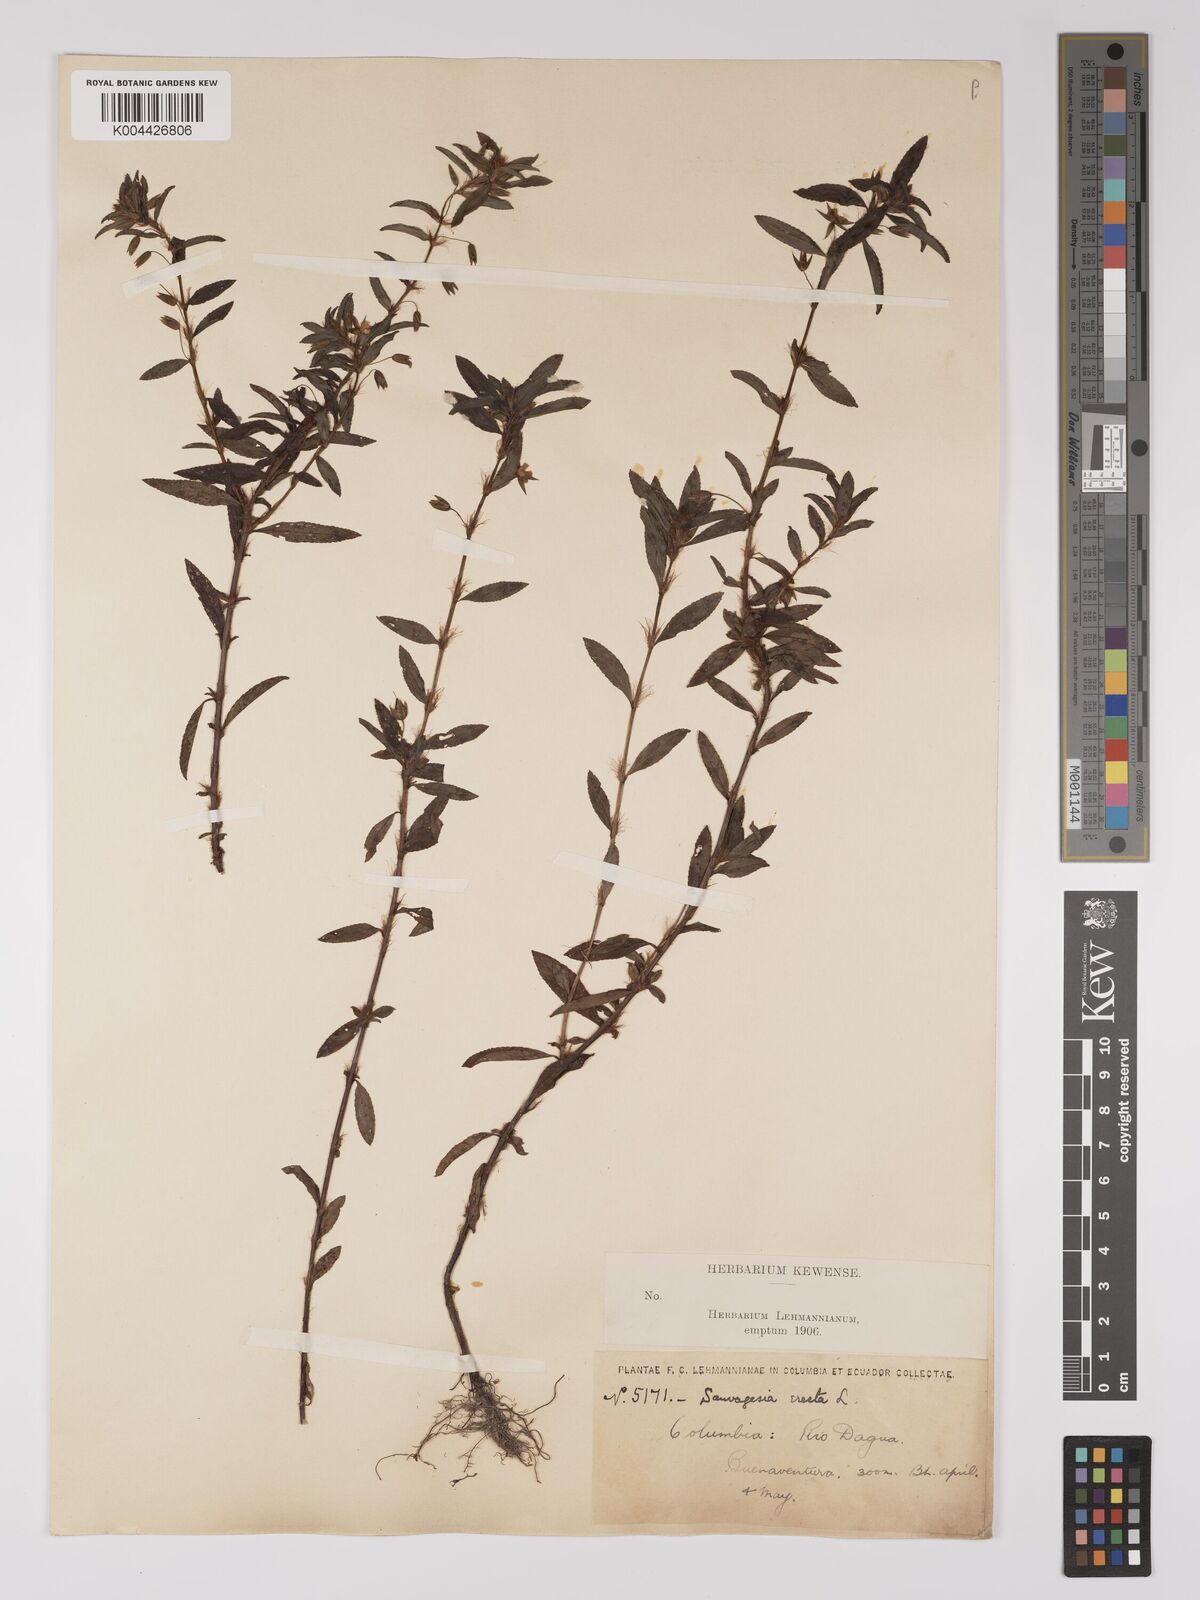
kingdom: Plantae
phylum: Tracheophyta
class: Magnoliopsida
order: Malpighiales
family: Ochnaceae
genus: Sauvagesia
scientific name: Sauvagesia erecta
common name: Creole tea
